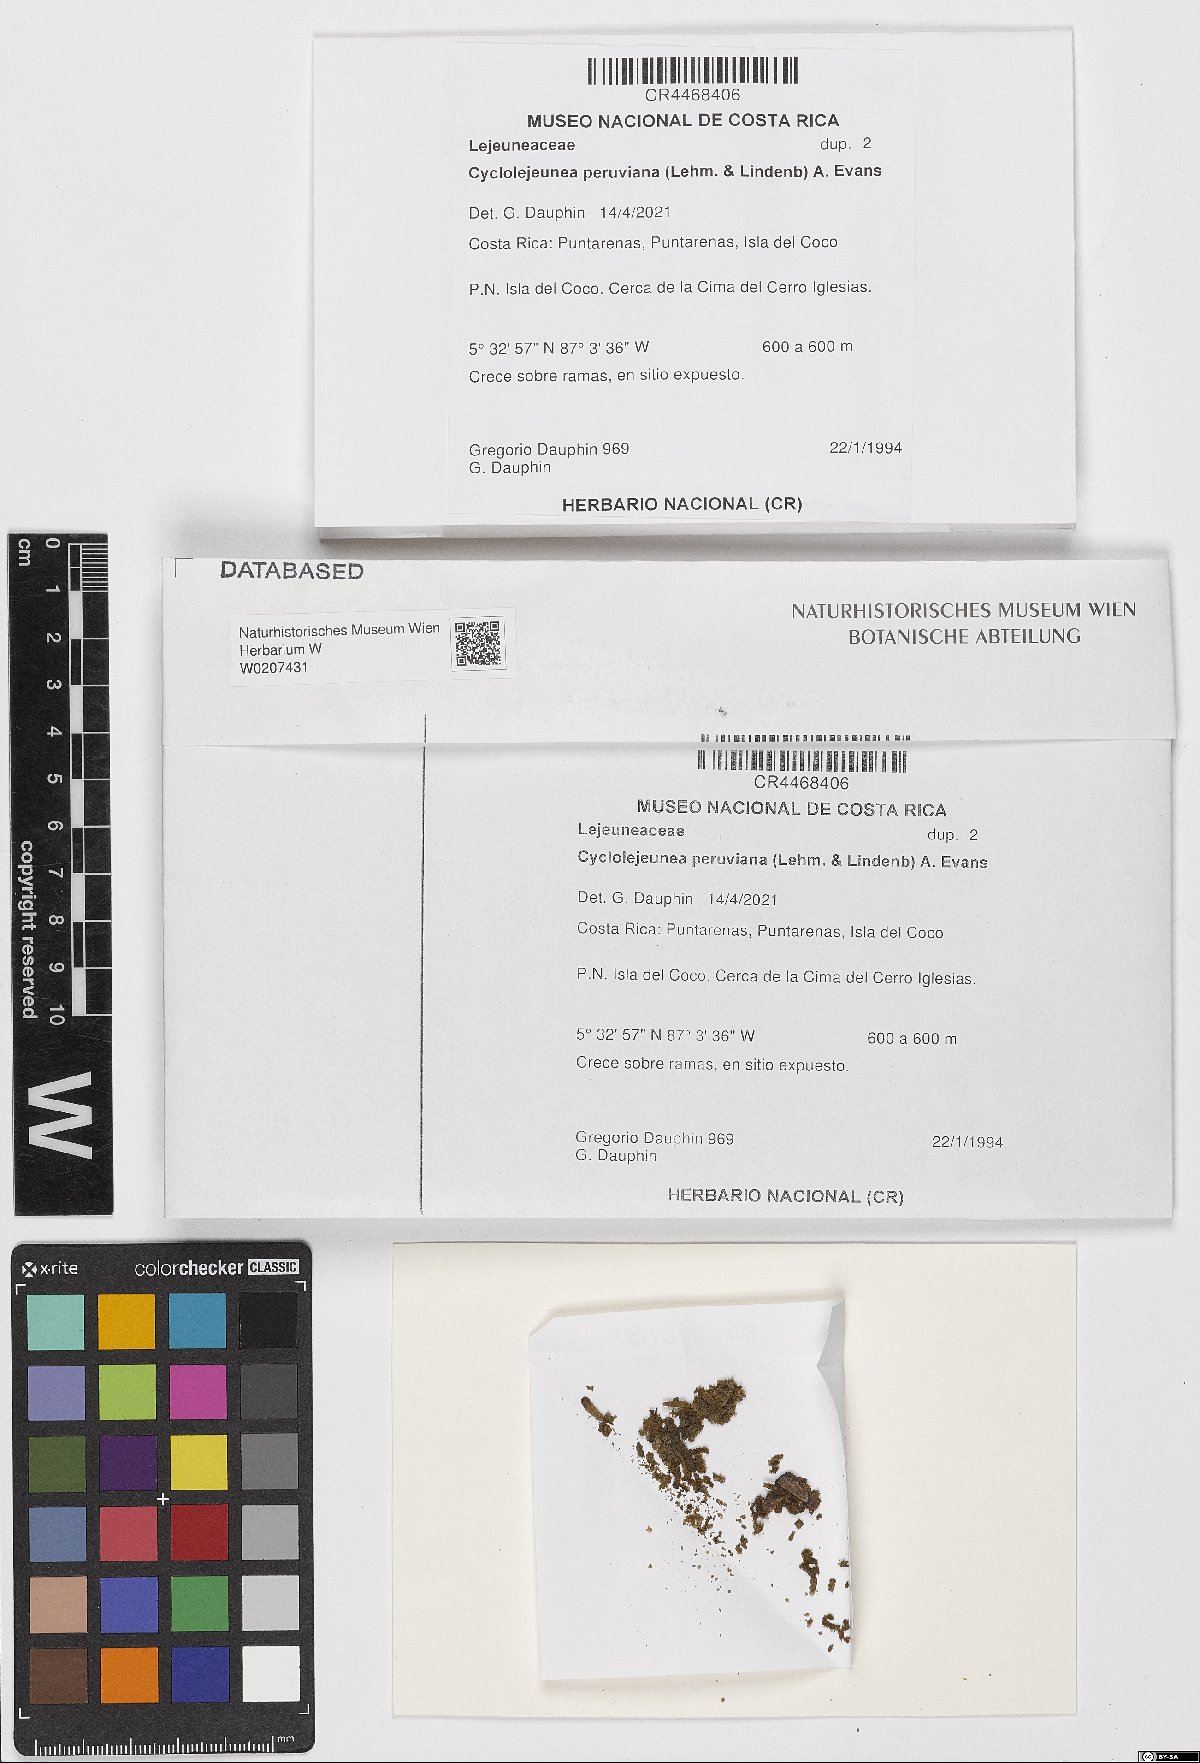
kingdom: Plantae
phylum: Marchantiophyta
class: Jungermanniopsida
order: Porellales
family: Lejeuneaceae
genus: Cyclolejeunea
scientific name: Cyclolejeunea peruviana
